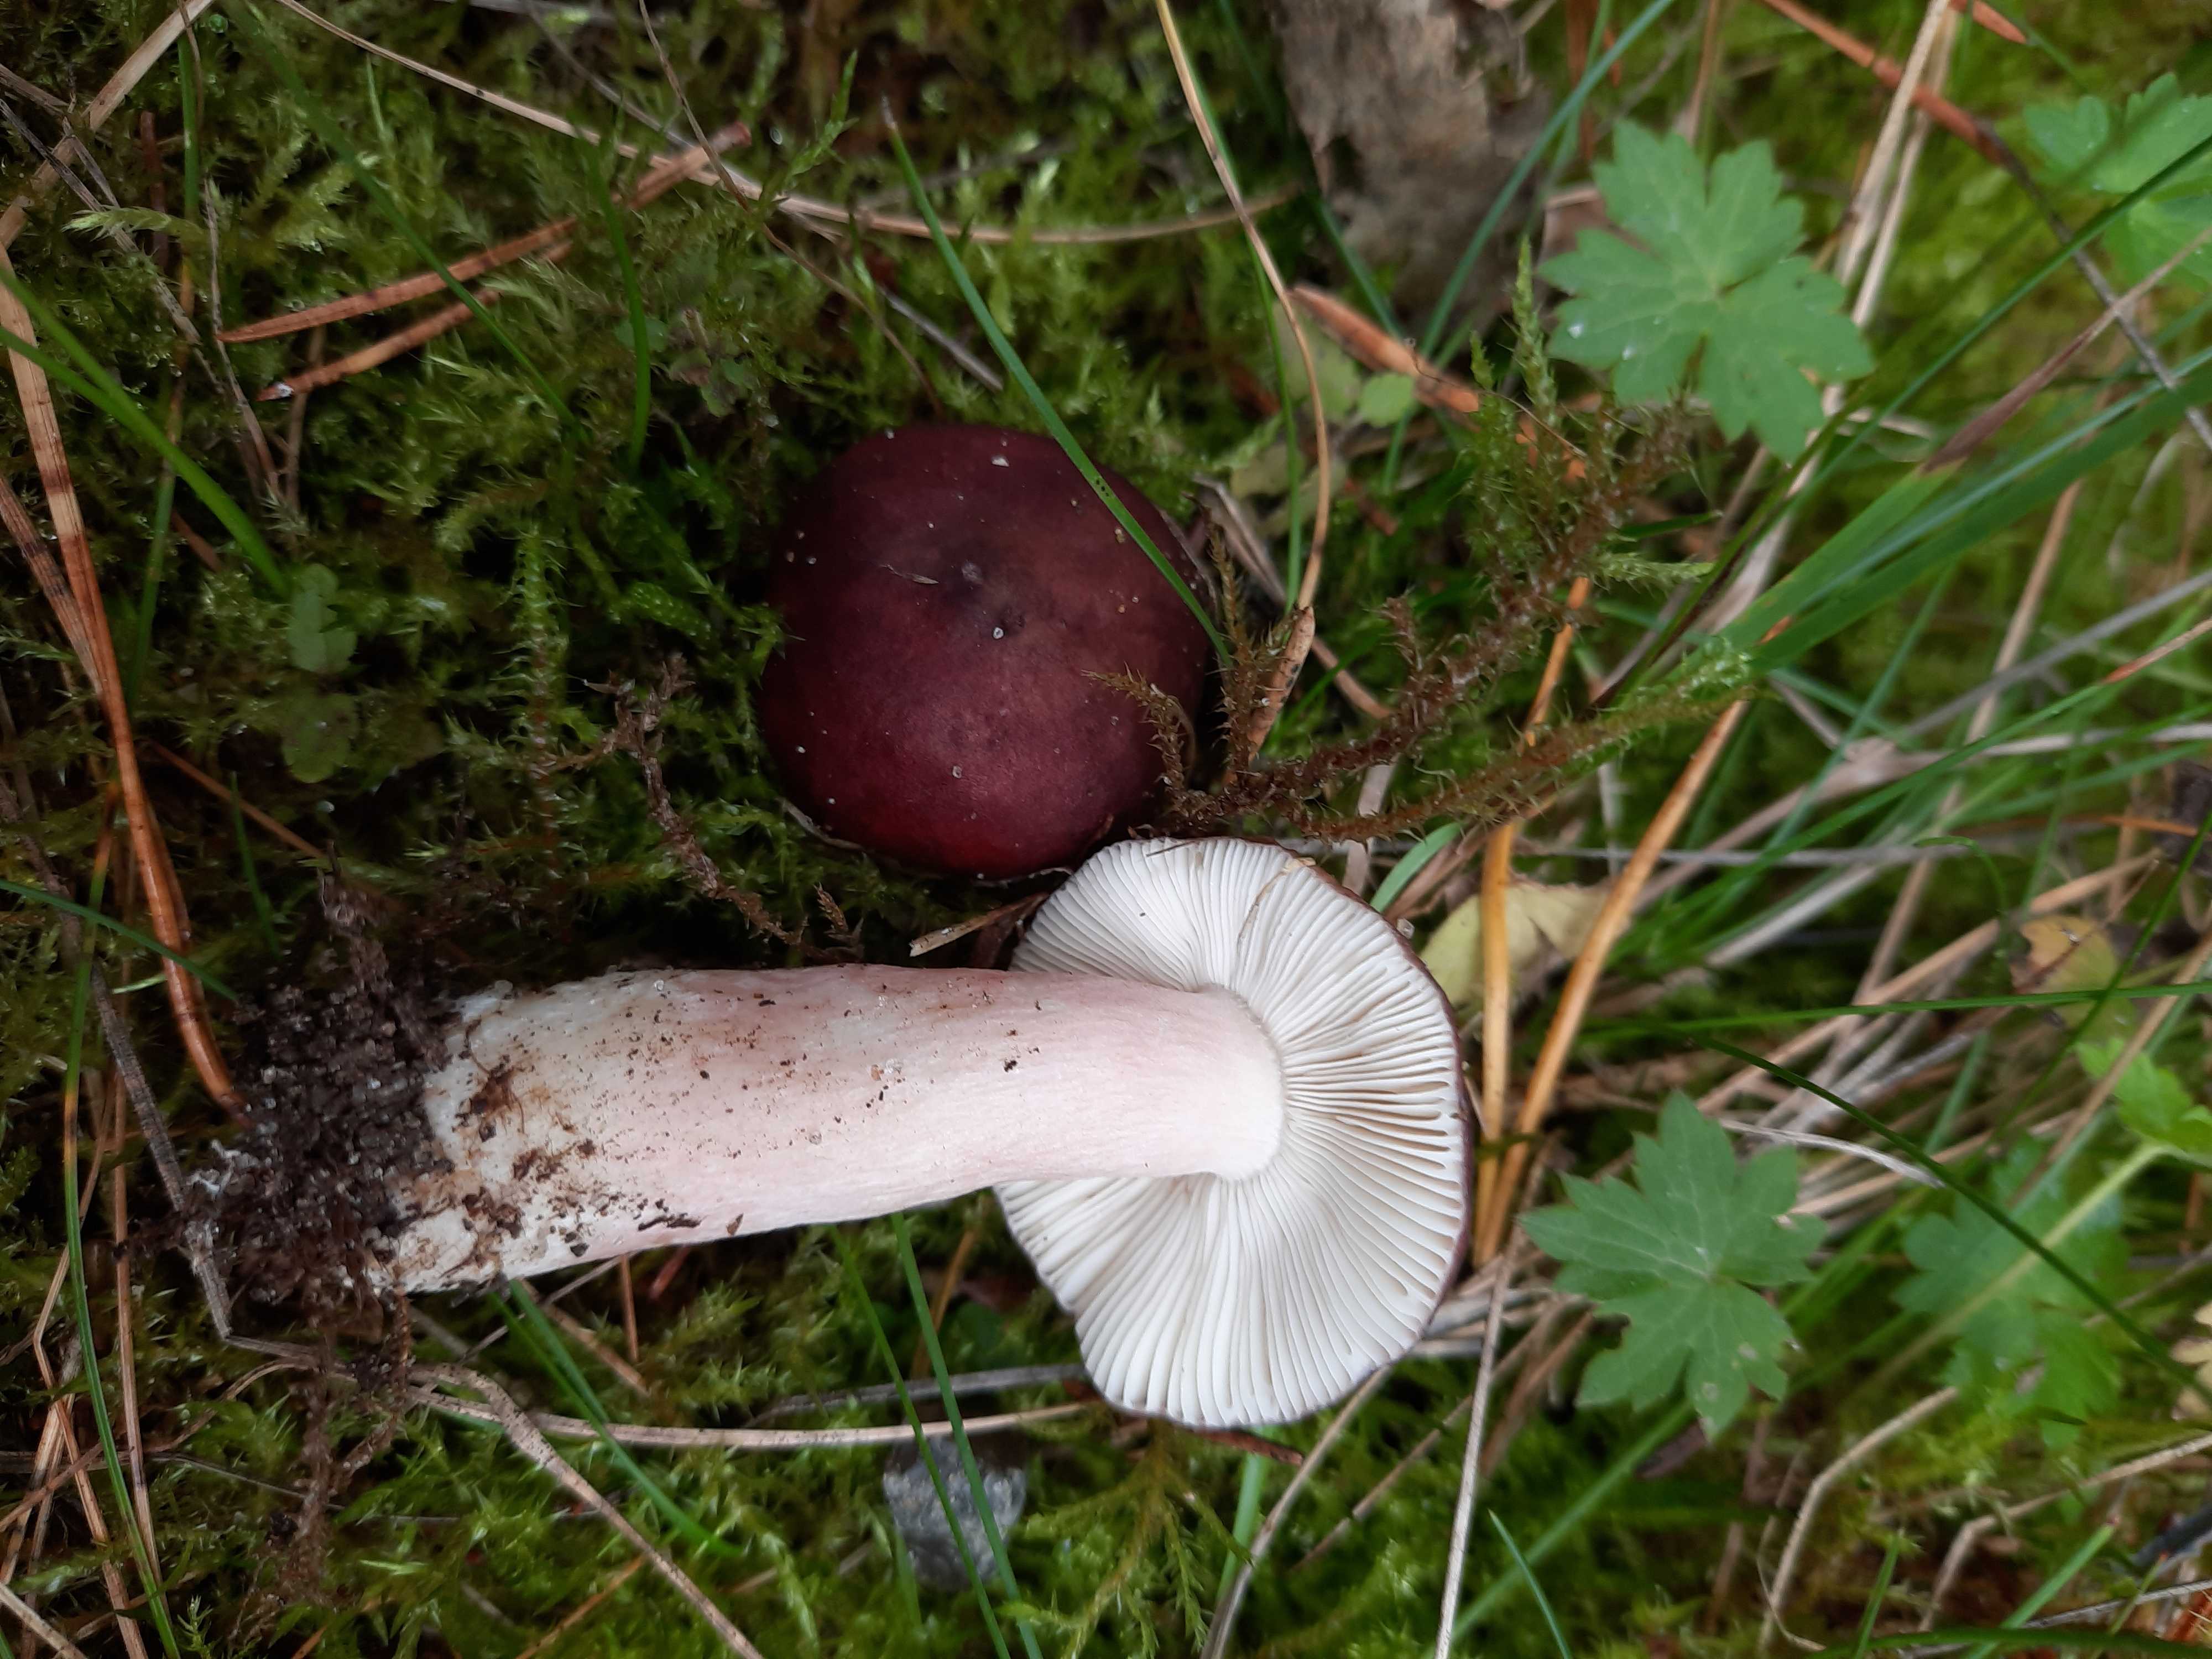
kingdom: Fungi
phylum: Basidiomycota
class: Agaricomycetes
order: Russulales
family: Russulaceae
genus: Russula
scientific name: Russula queletii
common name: Quélets skørhat
